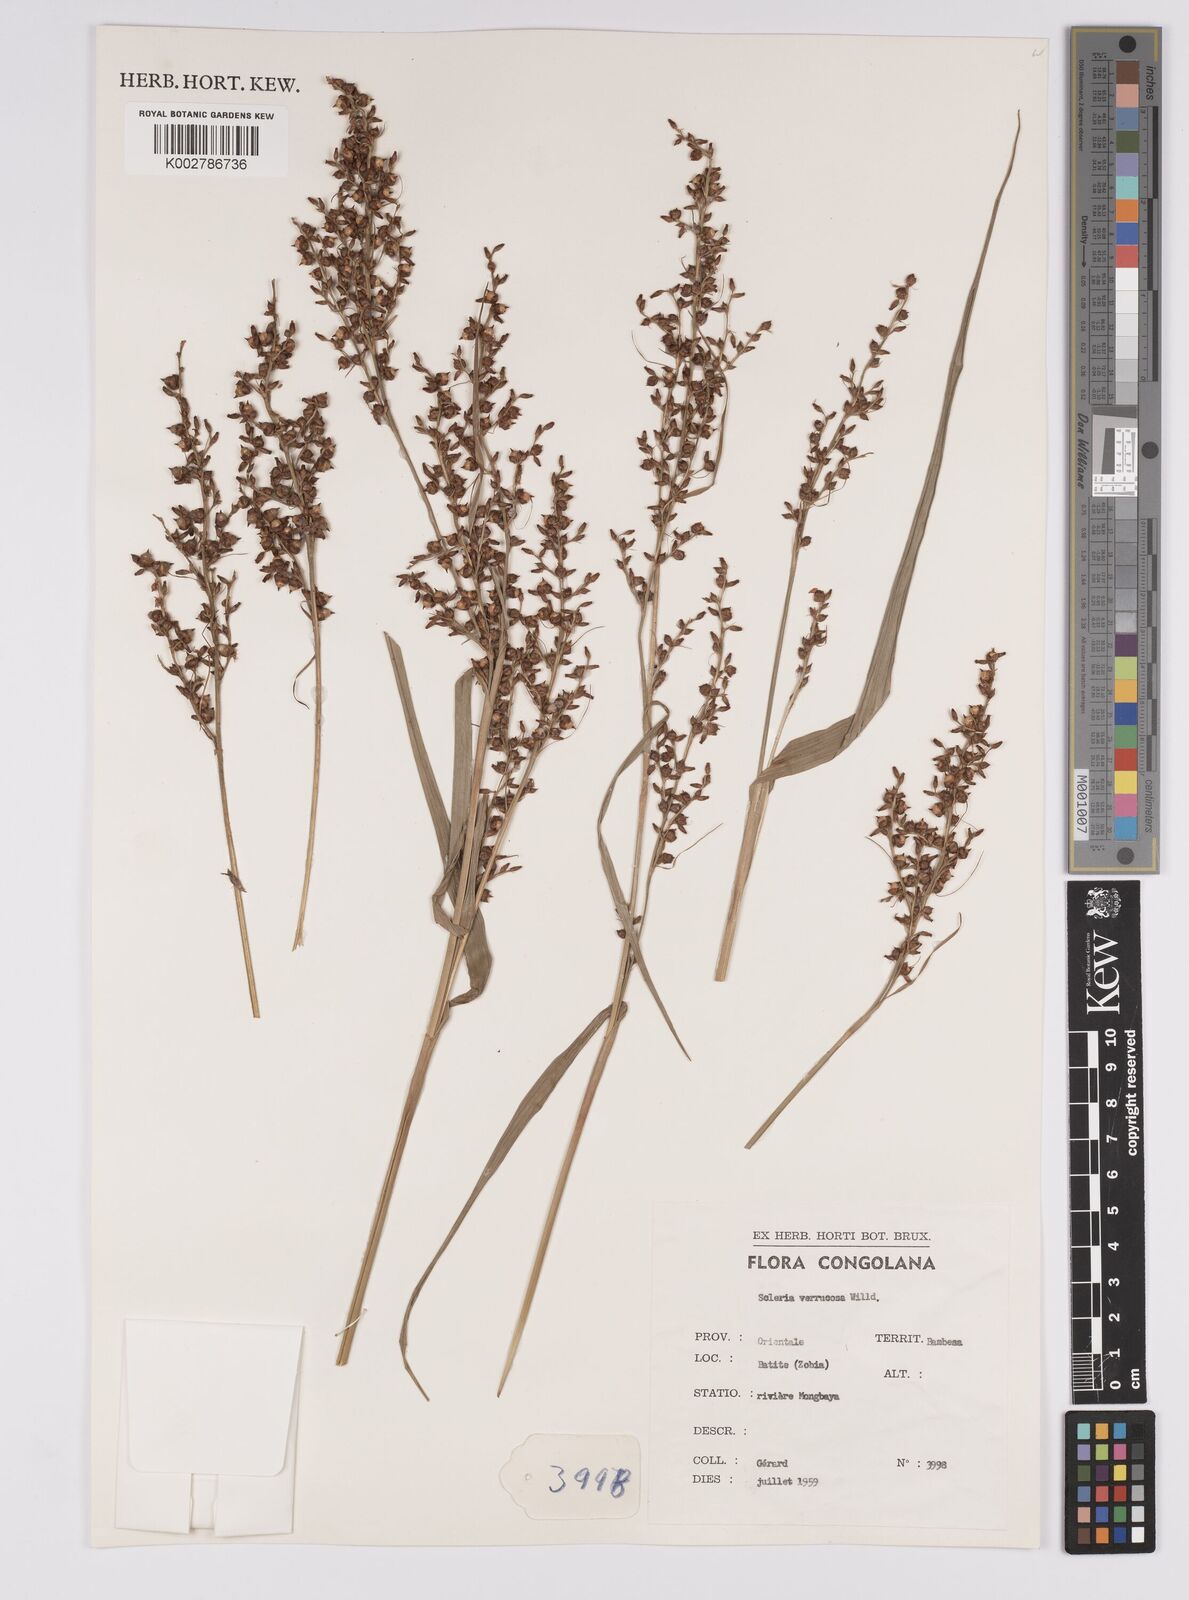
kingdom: Plantae
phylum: Tracheophyta
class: Liliopsida
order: Poales
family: Cyperaceae
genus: Scleria
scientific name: Scleria verrucosa
